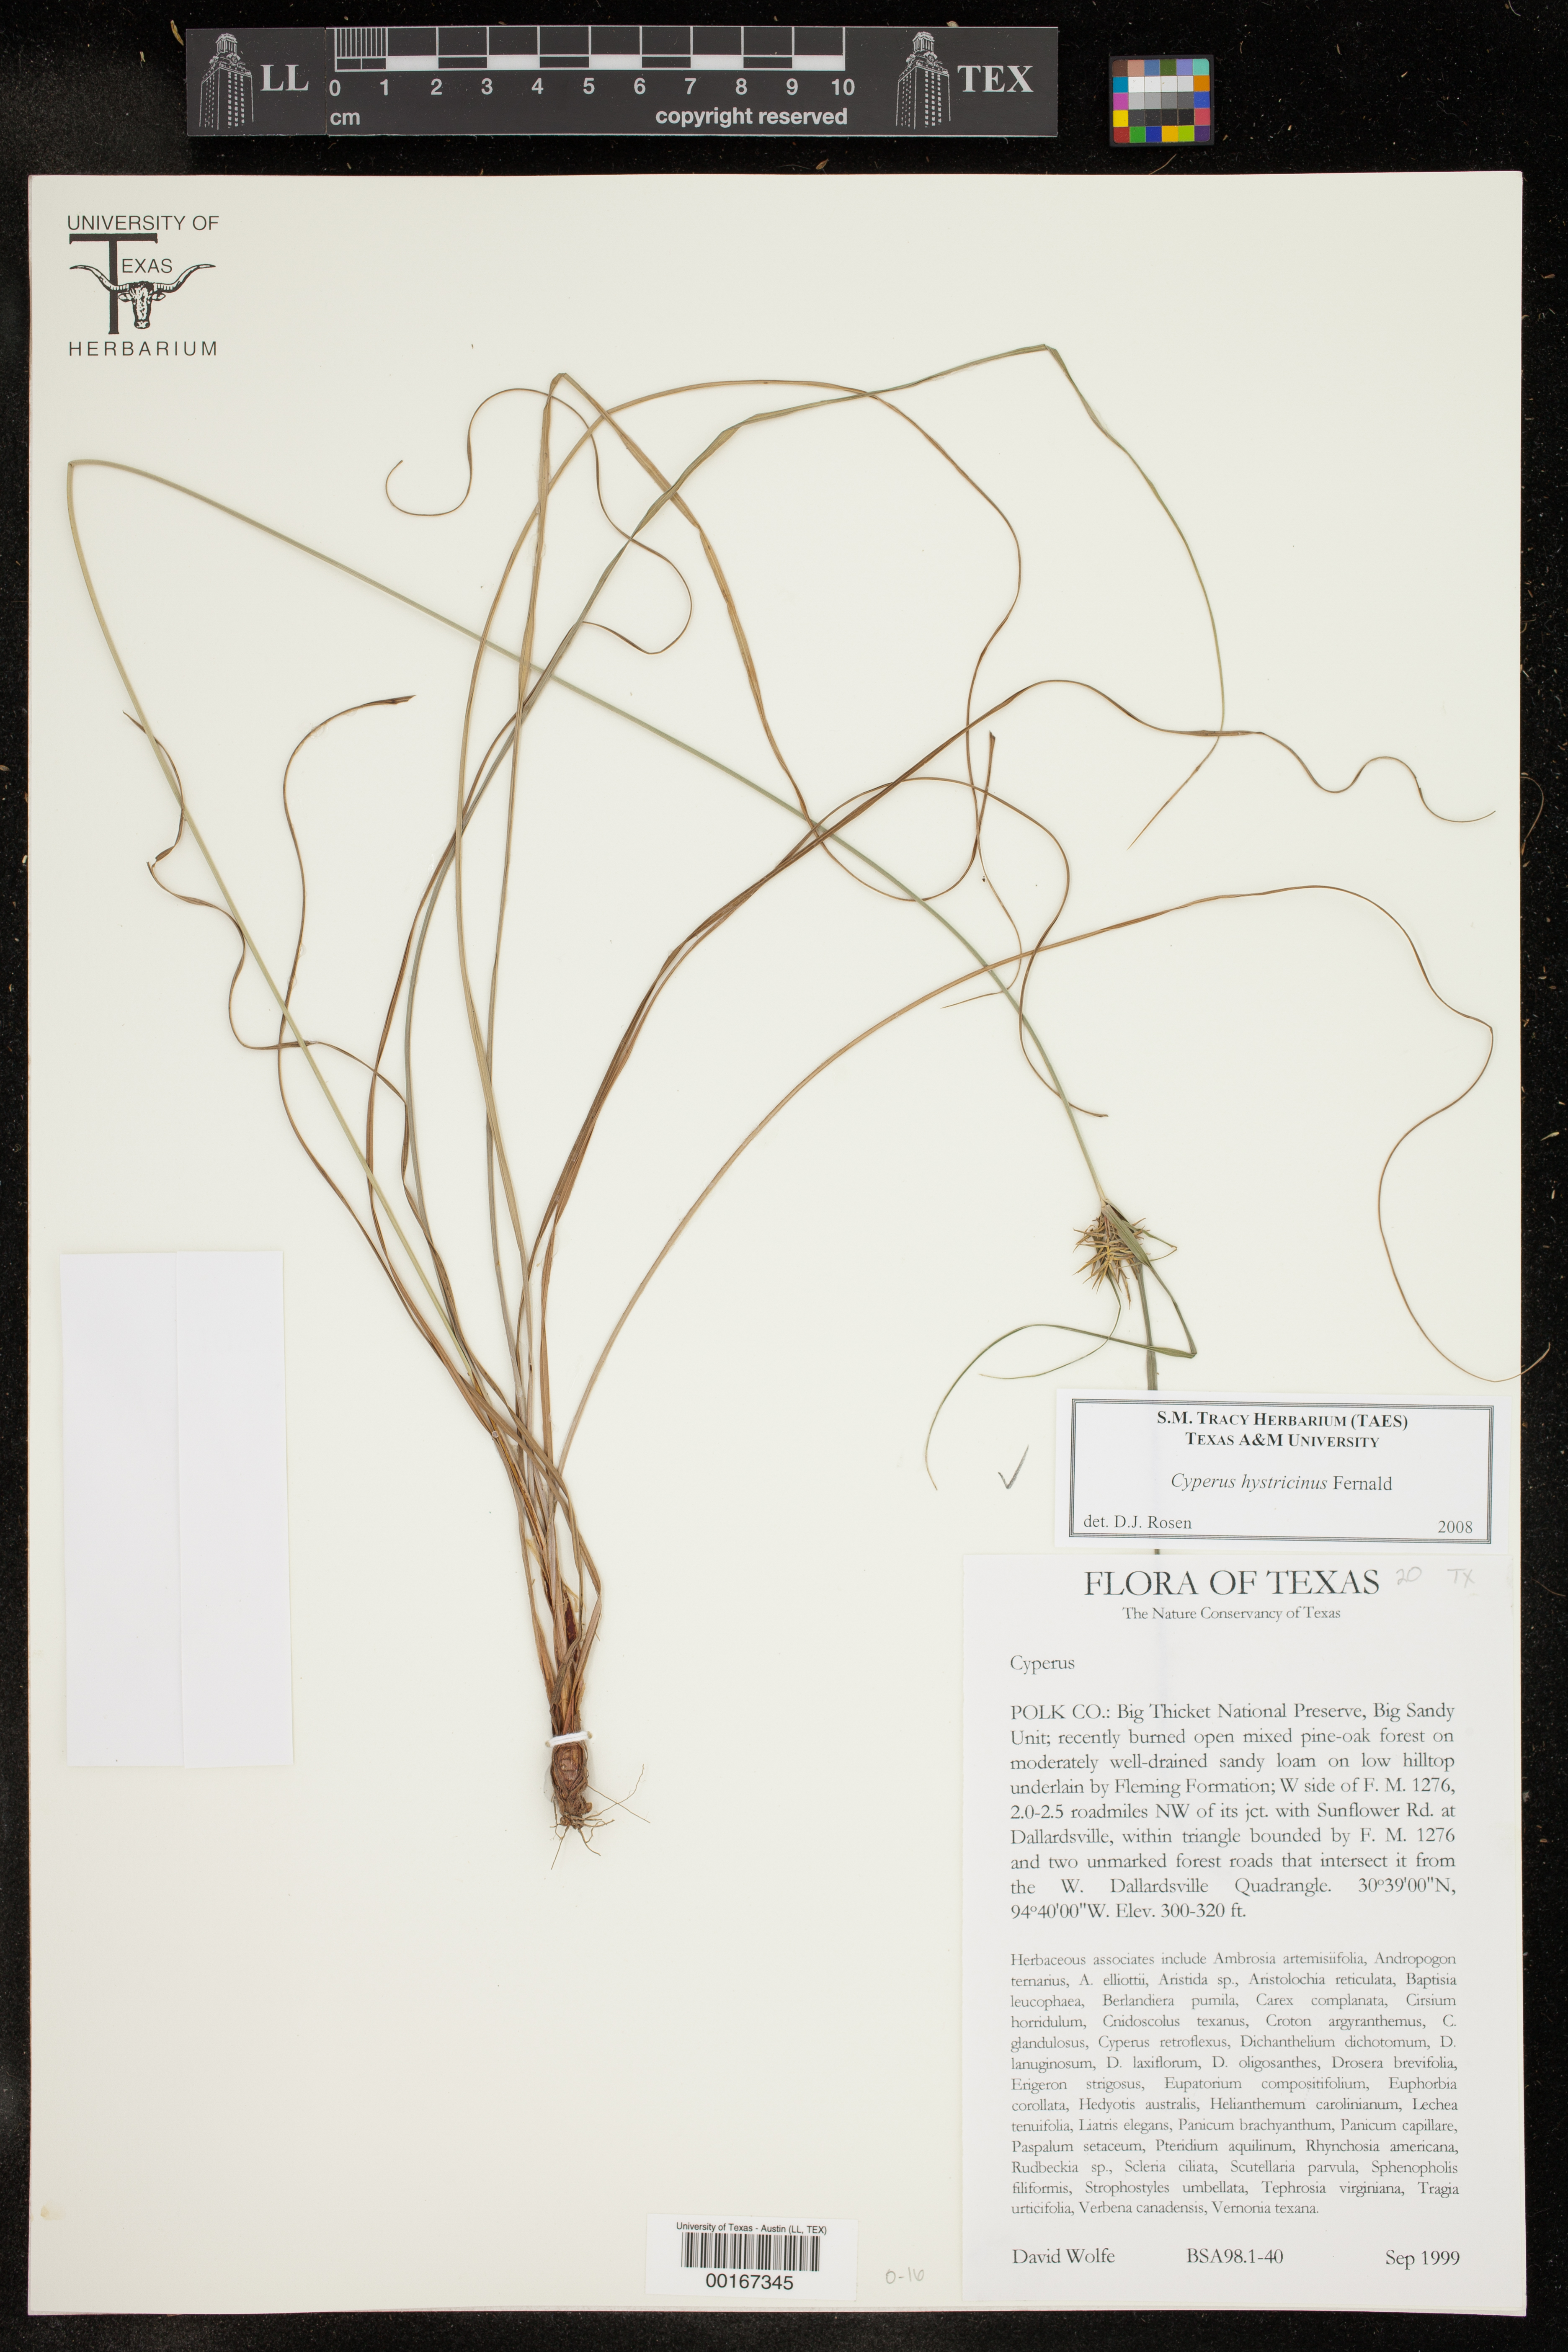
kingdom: Plantae
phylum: Tracheophyta
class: Liliopsida
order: Poales
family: Cyperaceae
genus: Cyperus
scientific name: Cyperus hystricinus
